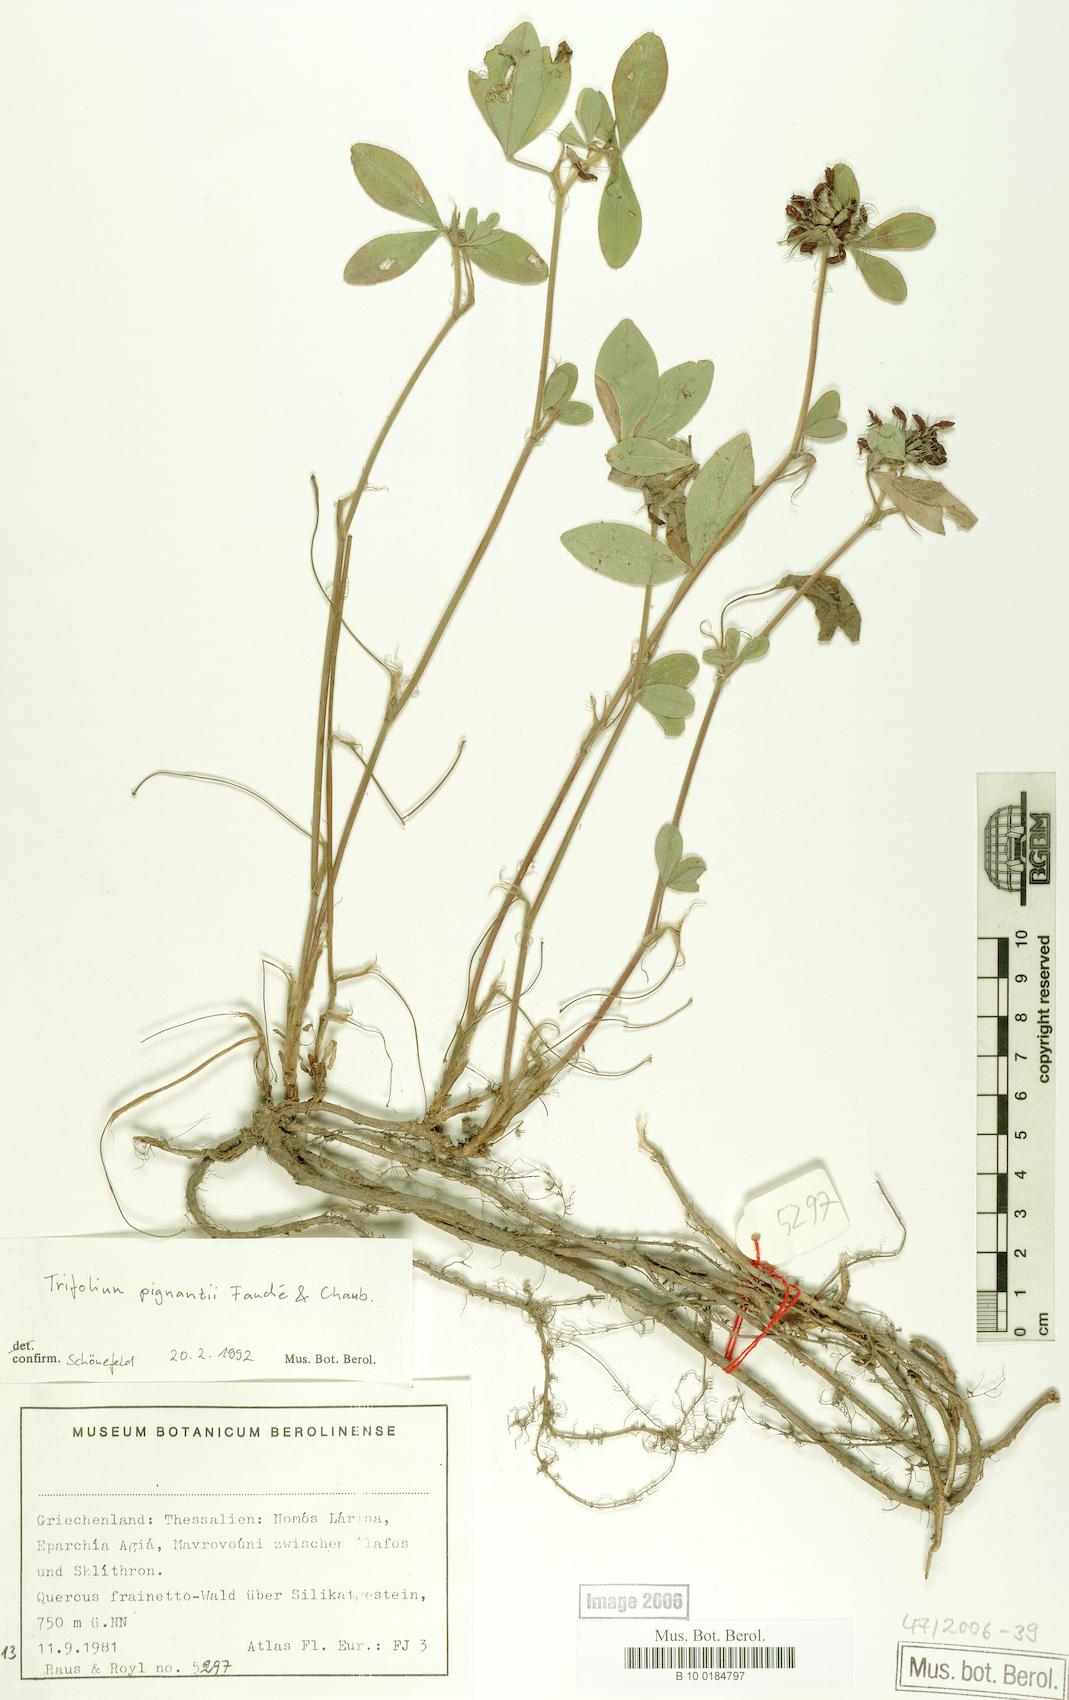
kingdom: Plantae
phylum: Tracheophyta
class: Magnoliopsida
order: Fabales
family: Fabaceae
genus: Trifolium
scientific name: Trifolium pignantii
